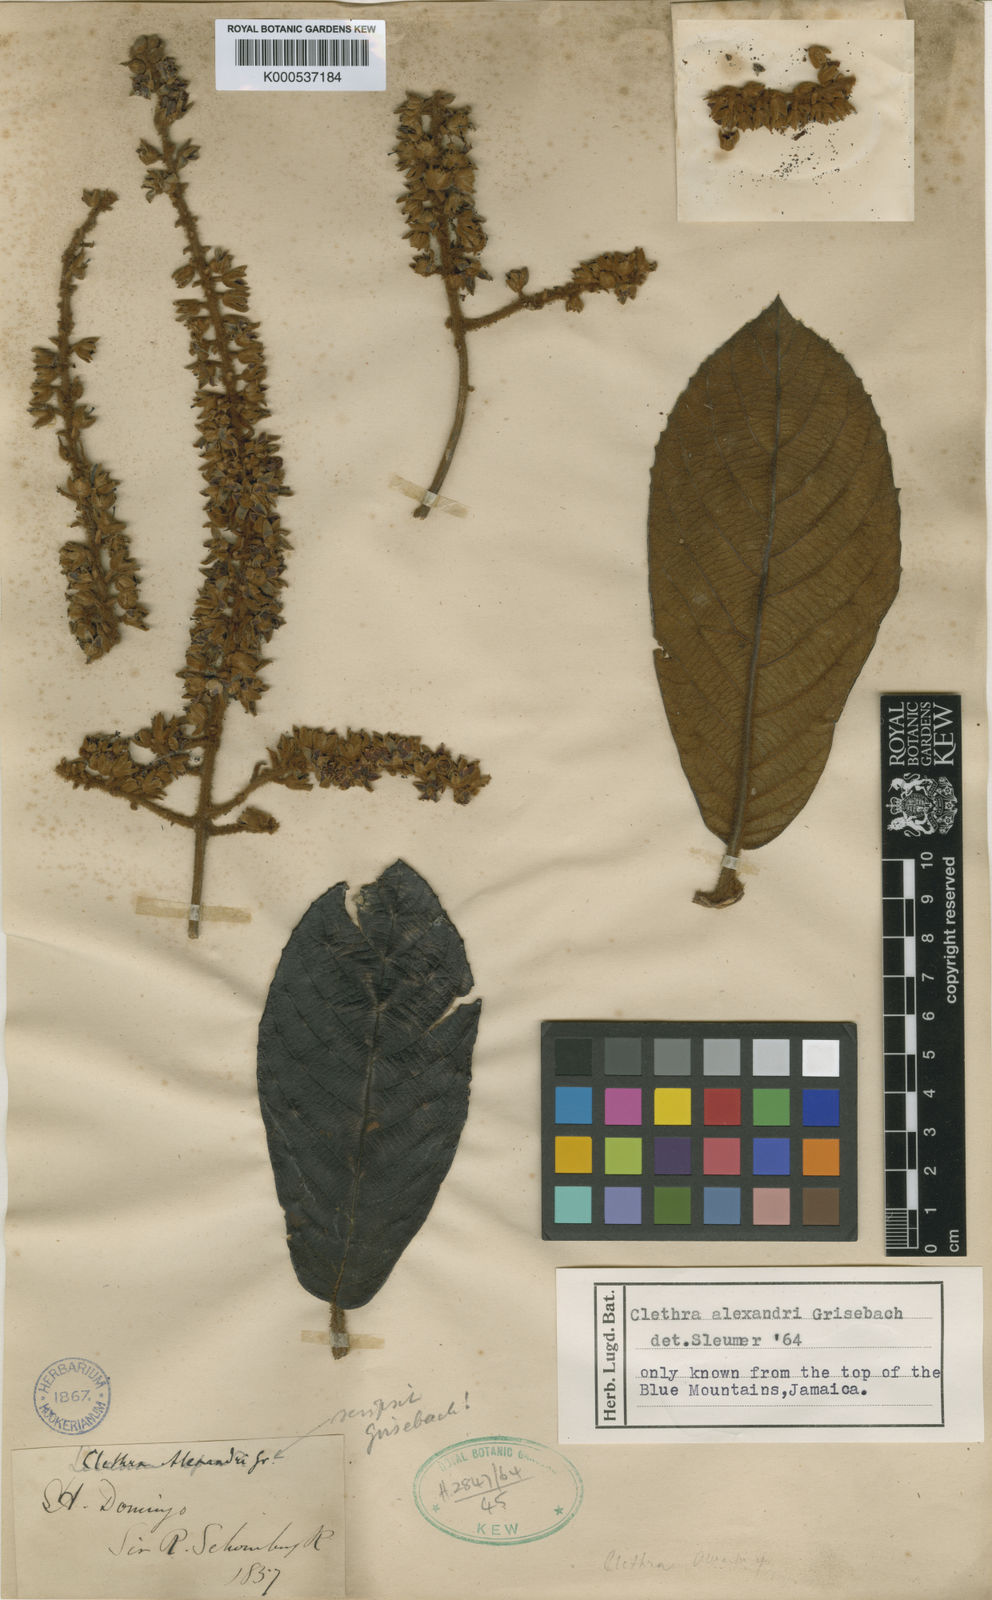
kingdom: Plantae
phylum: Tracheophyta
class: Magnoliopsida
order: Ericales
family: Clethraceae
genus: Clethra
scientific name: Clethra alexandri
